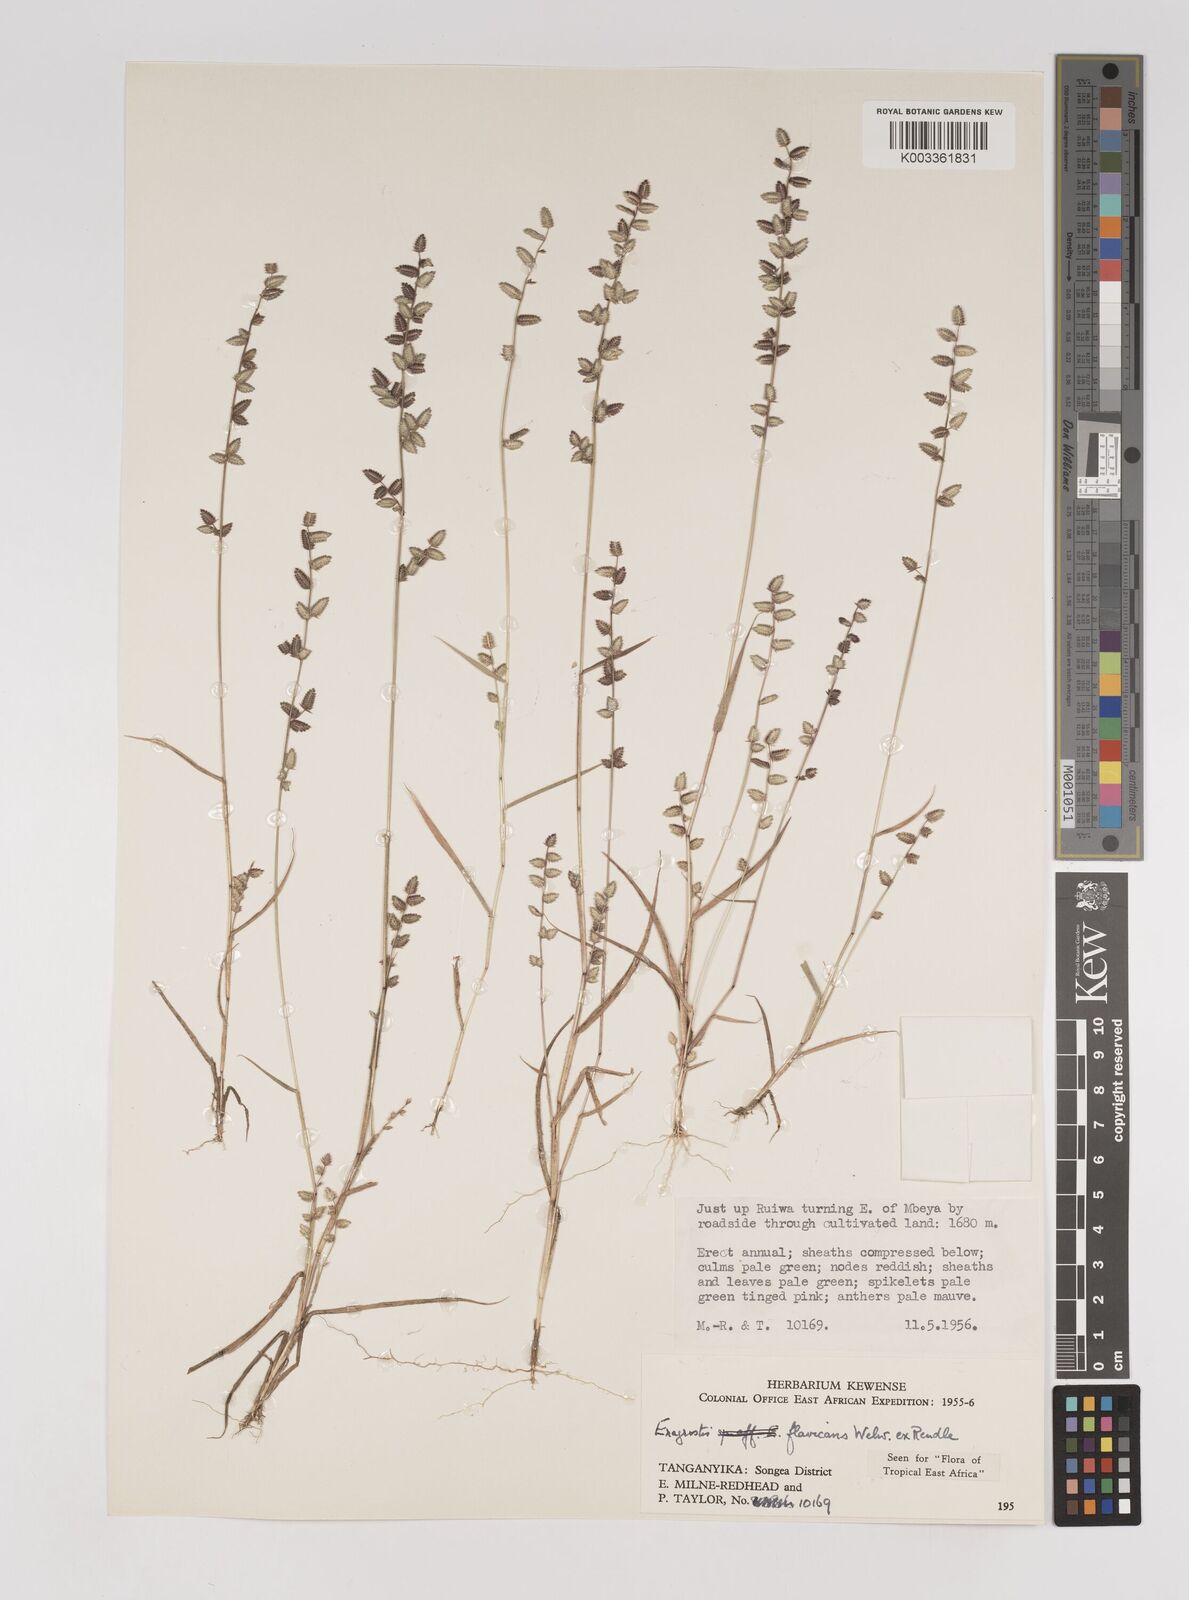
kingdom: Plantae
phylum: Tracheophyta
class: Liliopsida
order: Poales
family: Poaceae
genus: Eragrostis
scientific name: Eragrostis flavicans
